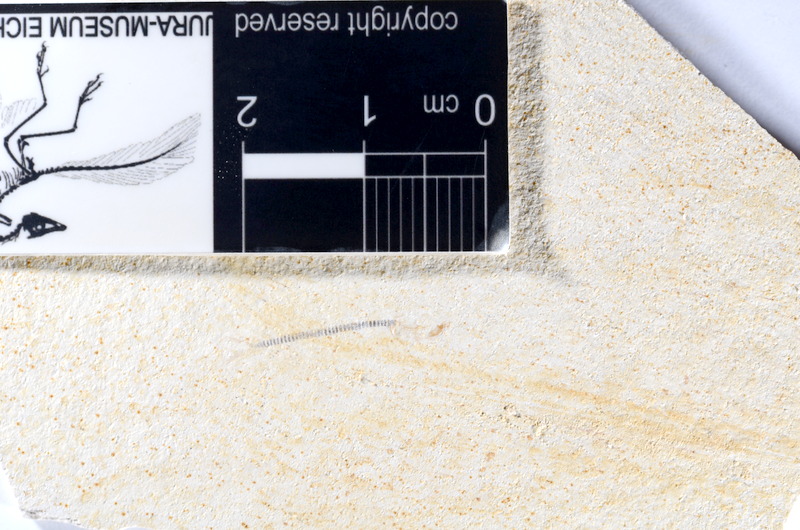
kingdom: Animalia
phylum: Chordata
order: Salmoniformes
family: Orthogonikleithridae
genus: Orthogonikleithrus
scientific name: Orthogonikleithrus hoelli
